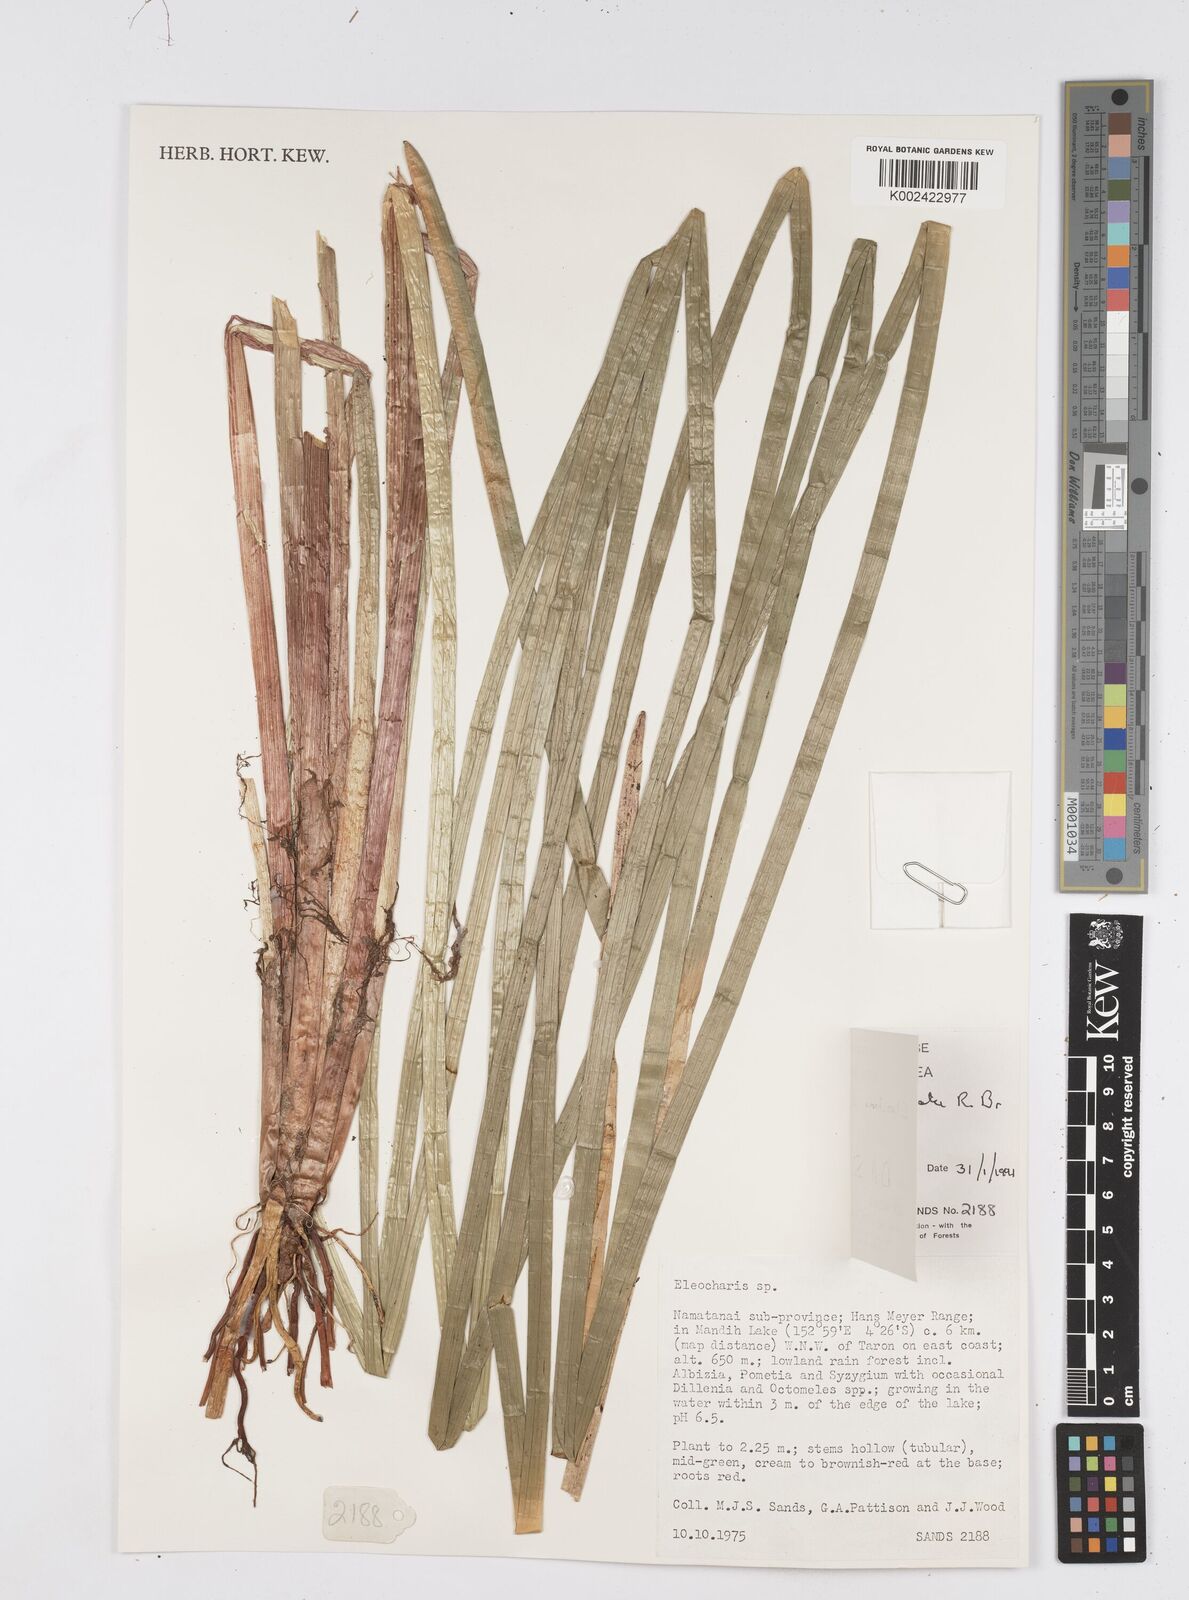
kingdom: Plantae
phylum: Tracheophyta
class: Liliopsida
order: Poales
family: Cyperaceae
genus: Eleocharis
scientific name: Eleocharis sphacelata
